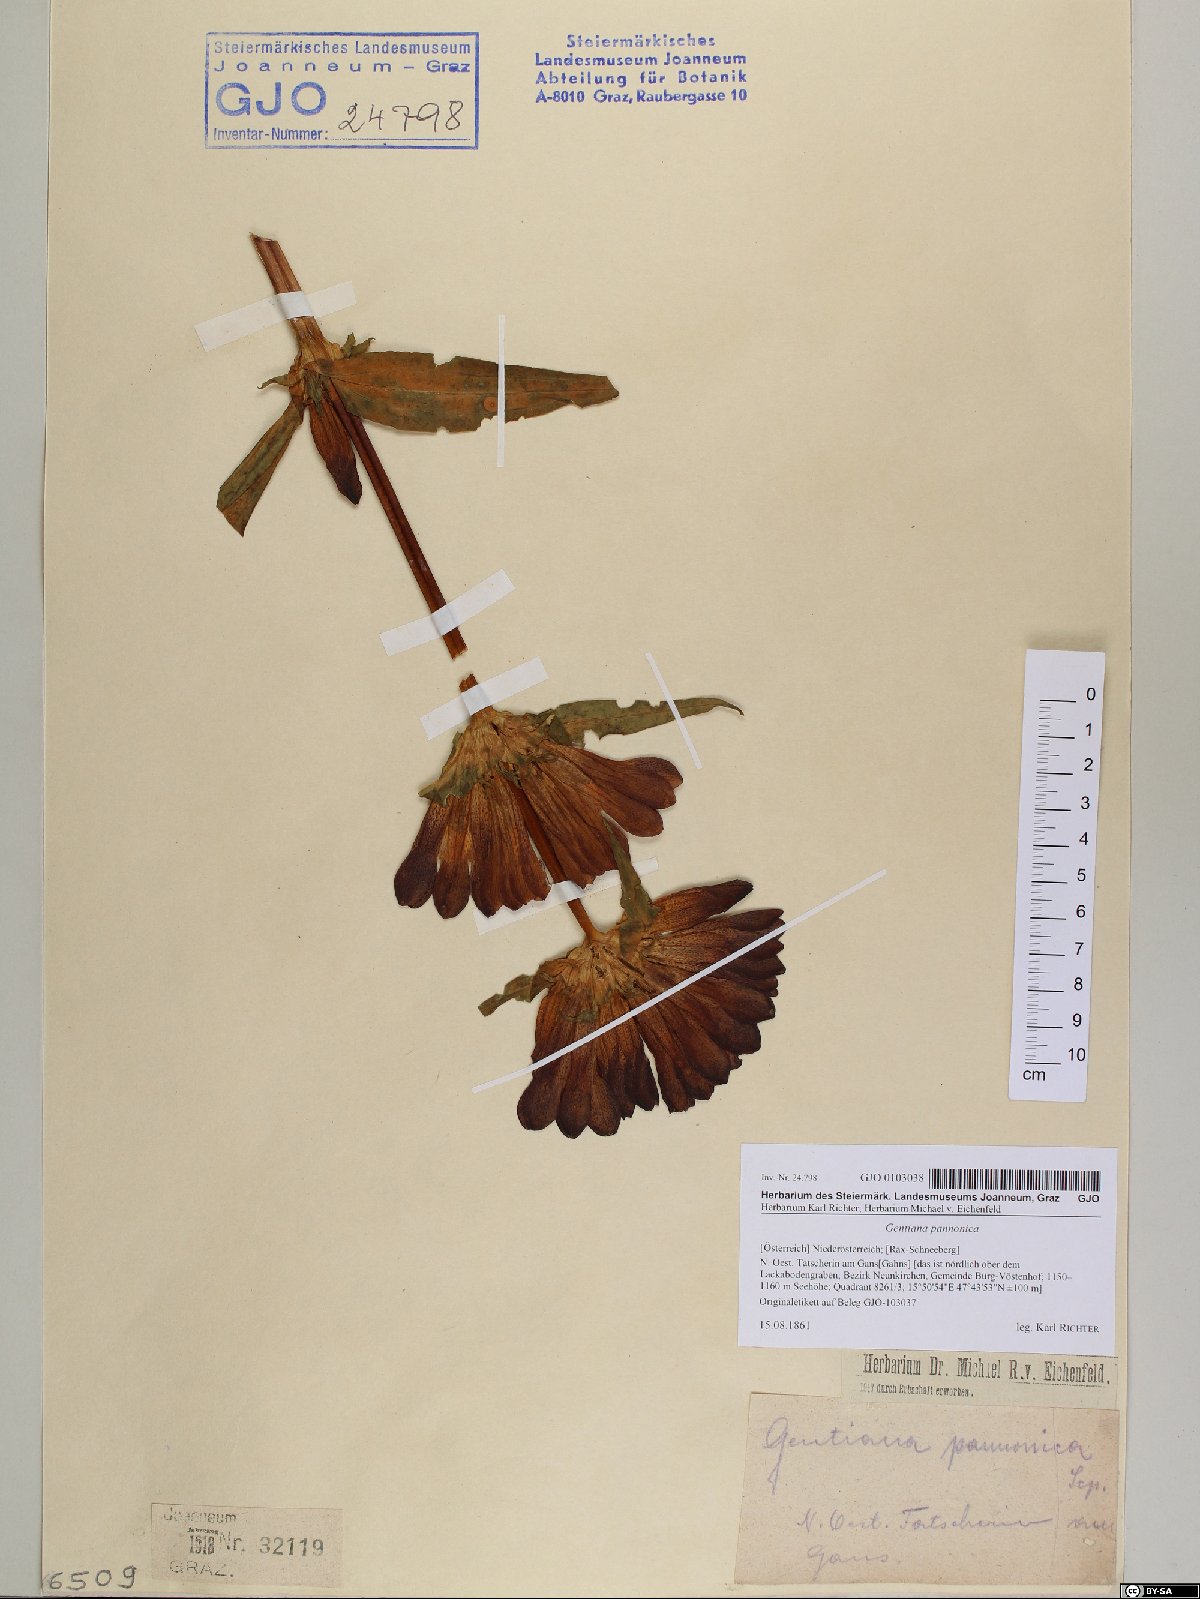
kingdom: Plantae
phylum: Tracheophyta
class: Magnoliopsida
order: Gentianales
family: Gentianaceae
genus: Gentiana
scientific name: Gentiana pannonica
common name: Hungarian gentian
